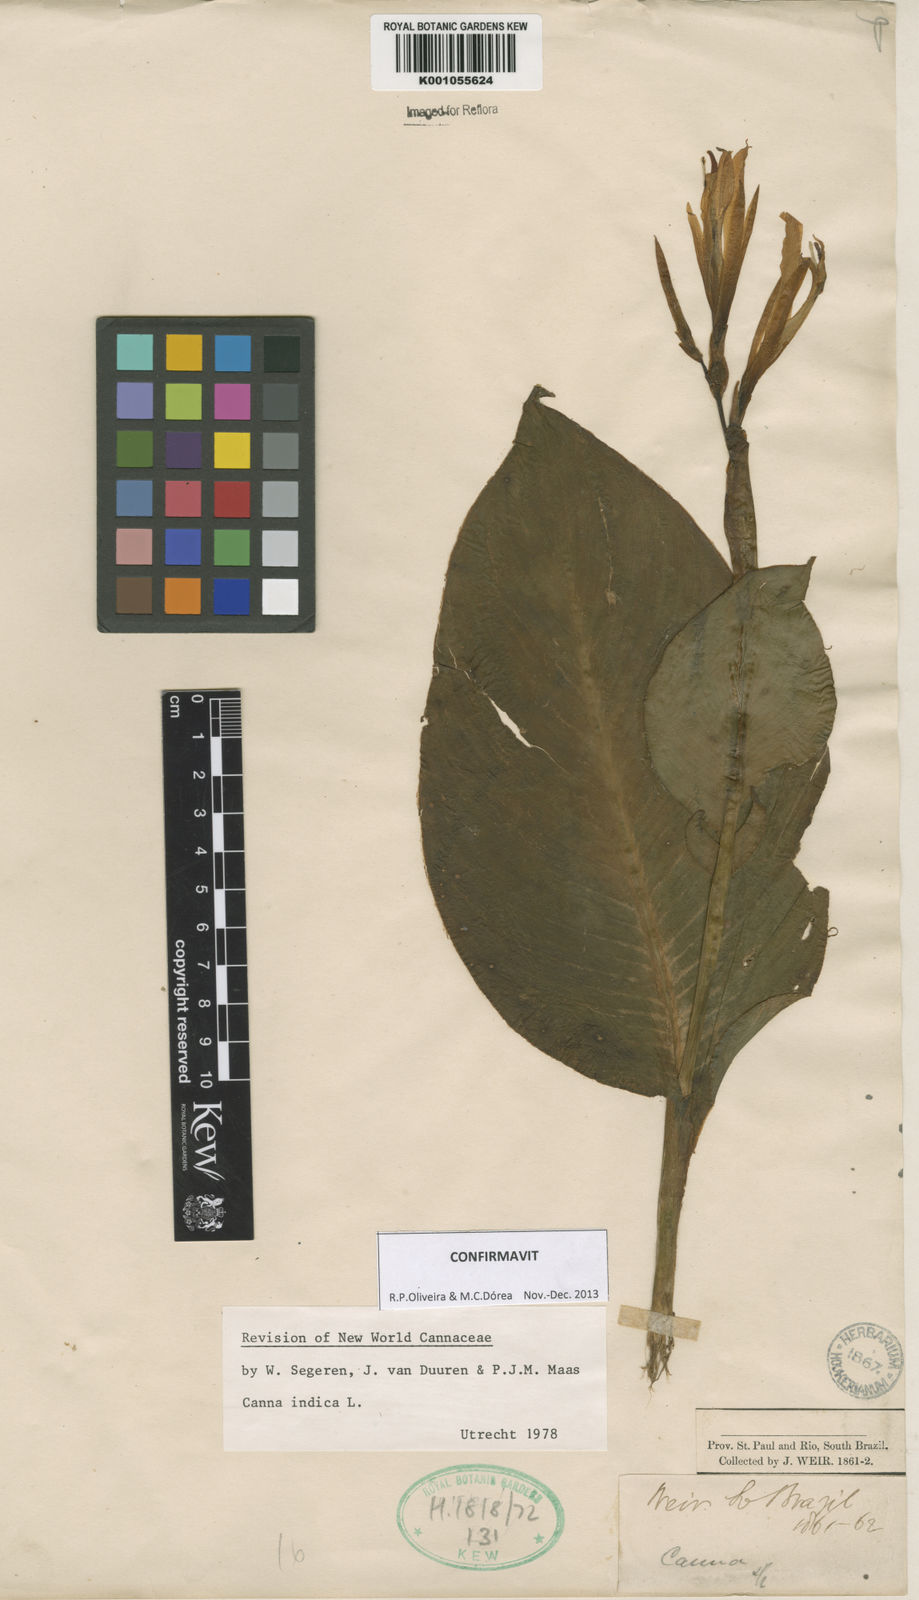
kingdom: Plantae
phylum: Tracheophyta
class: Liliopsida
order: Zingiberales
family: Cannaceae
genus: Canna
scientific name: Canna indica
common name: Indian shot
